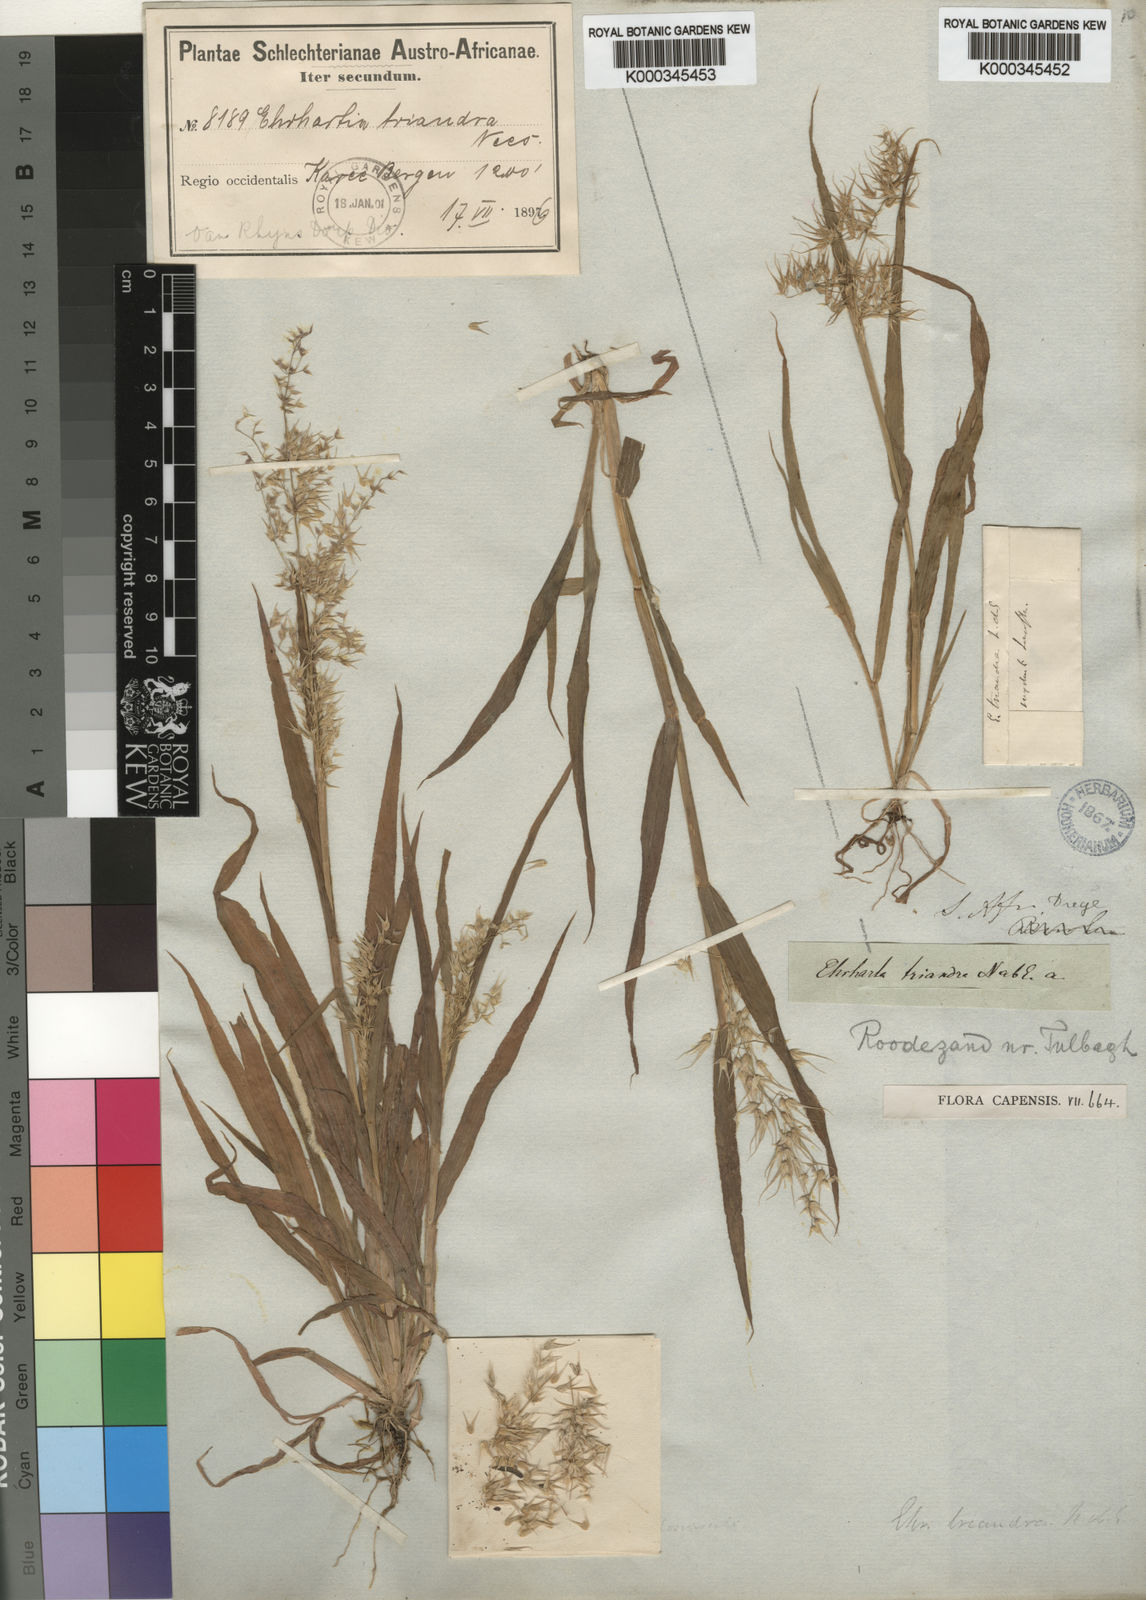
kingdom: Plantae
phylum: Tracheophyta
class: Liliopsida
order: Poales
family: Poaceae
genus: Ehrharta
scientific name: Ehrharta
